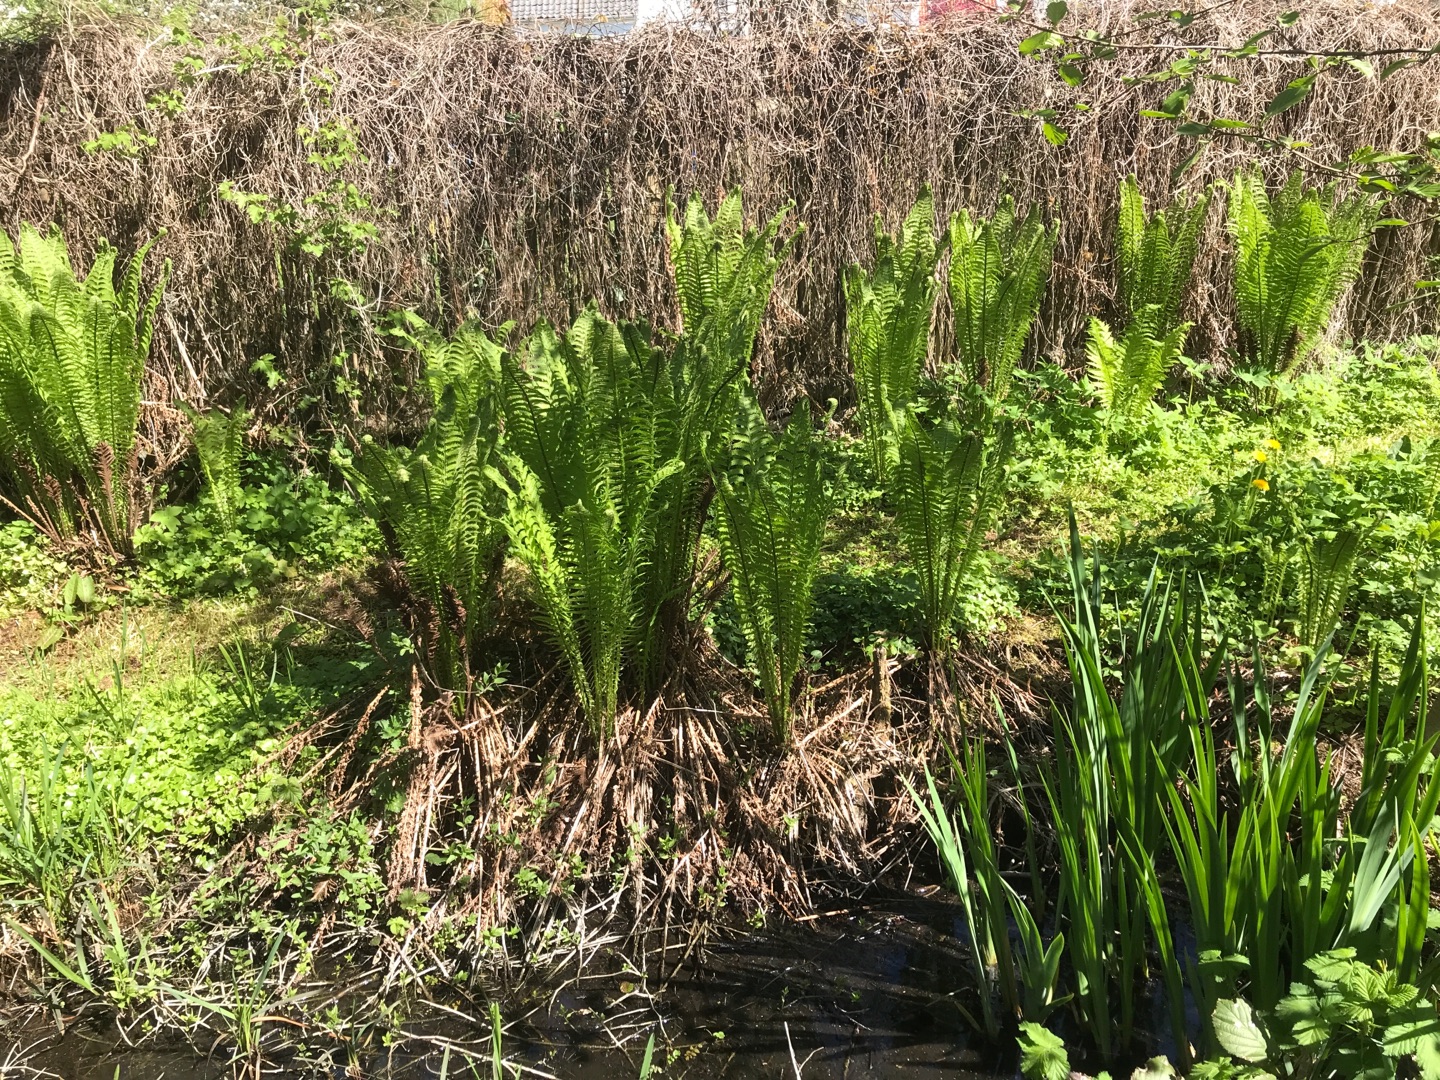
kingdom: Plantae
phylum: Tracheophyta
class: Polypodiopsida
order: Polypodiales
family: Onocleaceae
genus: Matteuccia
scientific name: Matteuccia struthiopteris
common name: Strudsvinge
